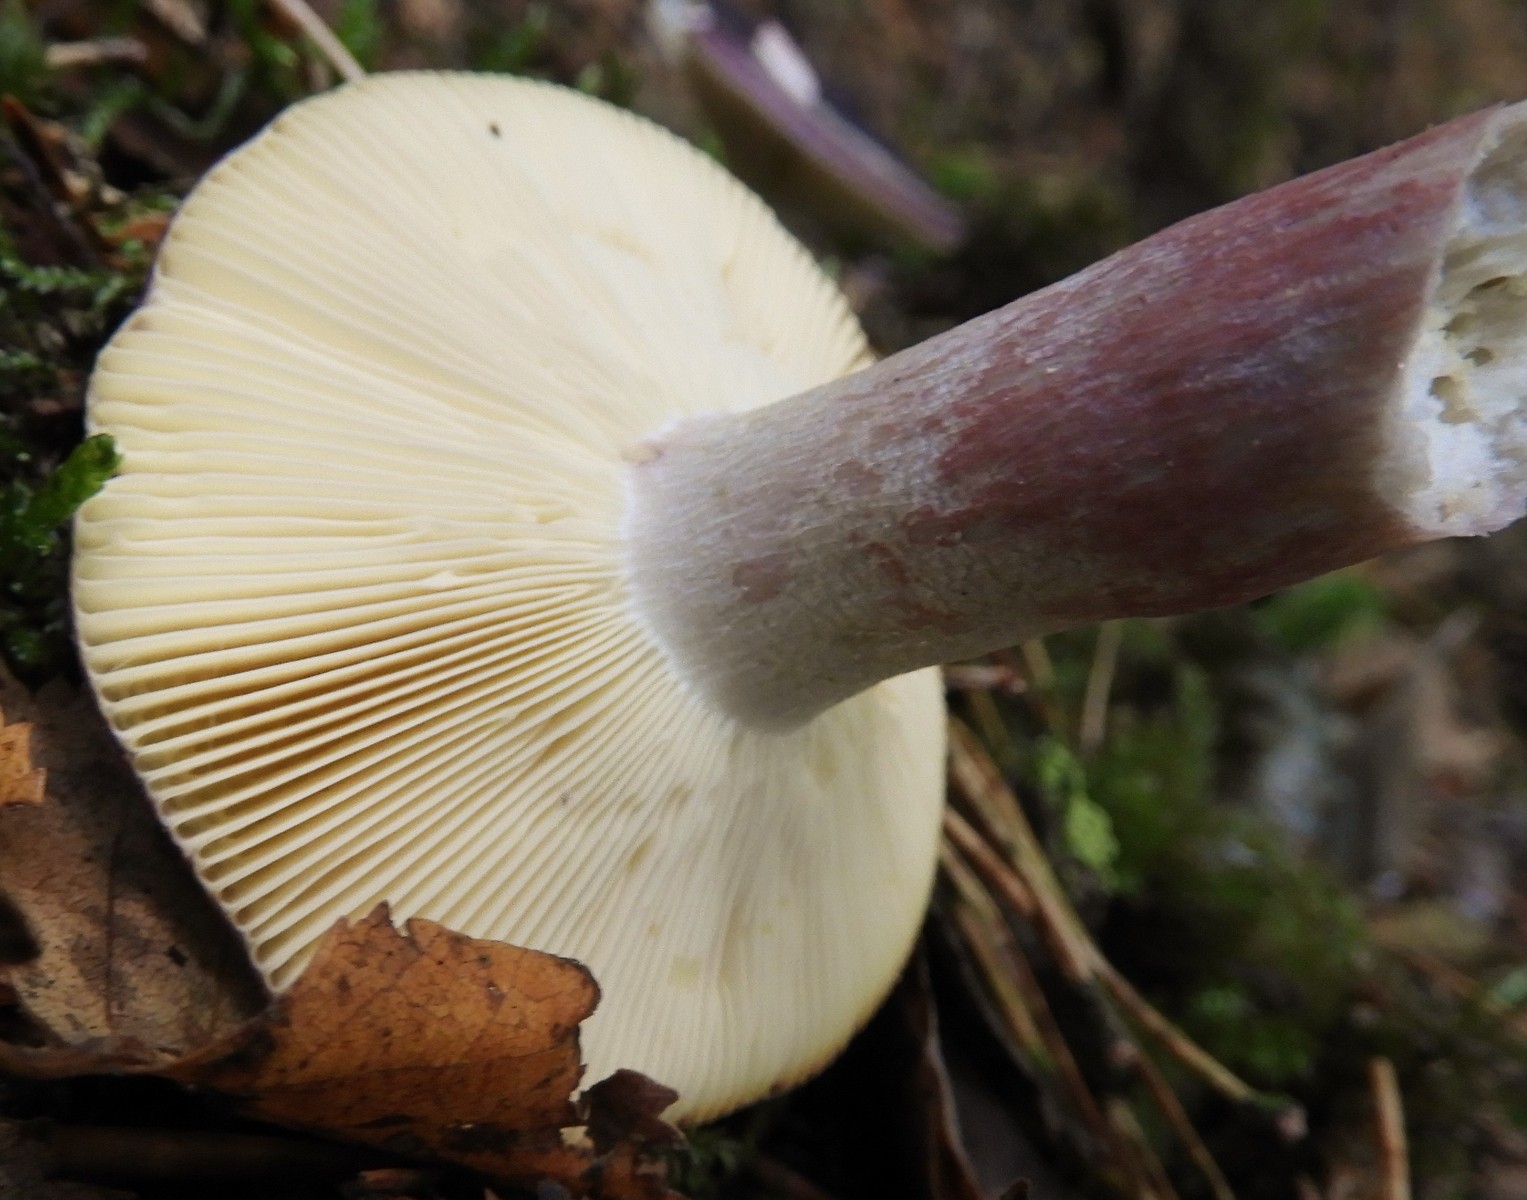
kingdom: Fungi
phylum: Basidiomycota
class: Agaricomycetes
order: Russulales
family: Russulaceae
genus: Russula
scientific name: Russula sardonia
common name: citronbladet skørhat
